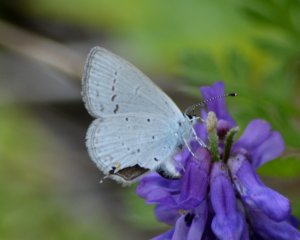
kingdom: Animalia
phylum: Arthropoda
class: Insecta
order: Lepidoptera
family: Lycaenidae
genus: Elkalyce
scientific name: Elkalyce amyntula
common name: Western Tailed-Blue
